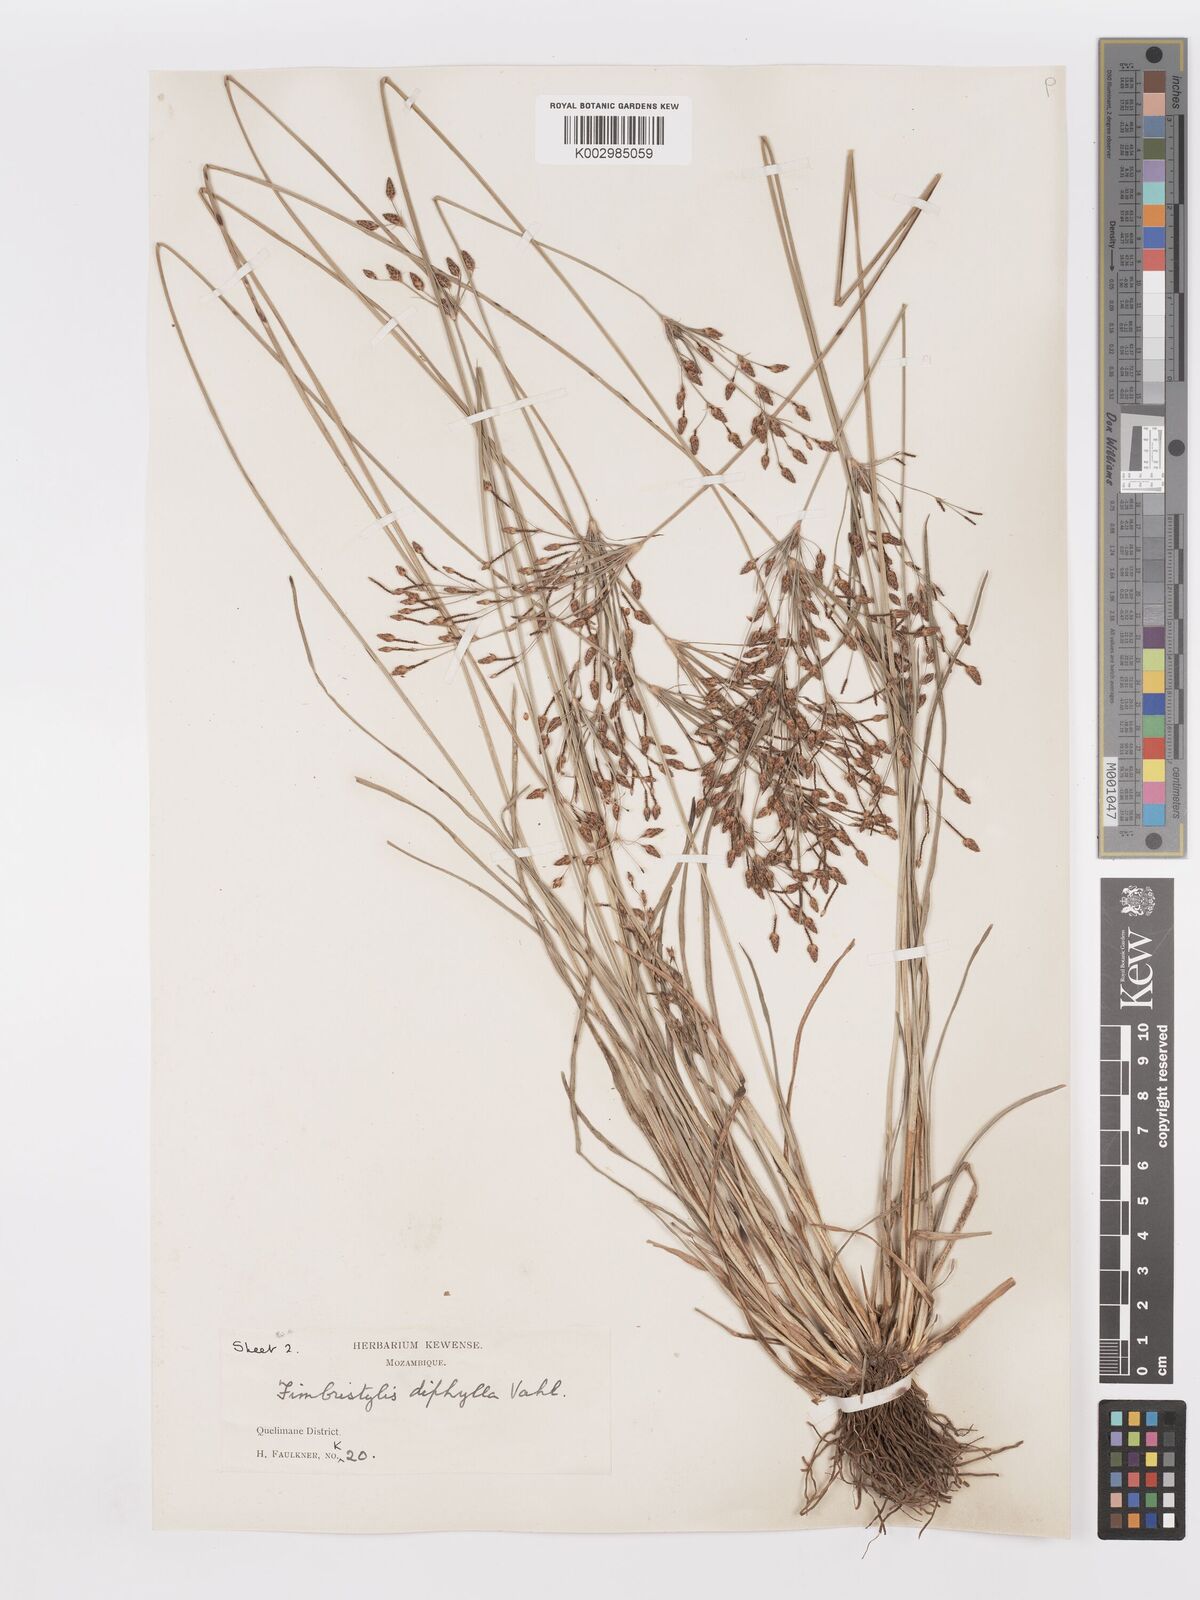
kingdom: Plantae
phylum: Tracheophyta
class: Liliopsida
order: Poales
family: Cyperaceae
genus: Fimbristylis
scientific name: Fimbristylis dichotoma
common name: Forked fimbry
